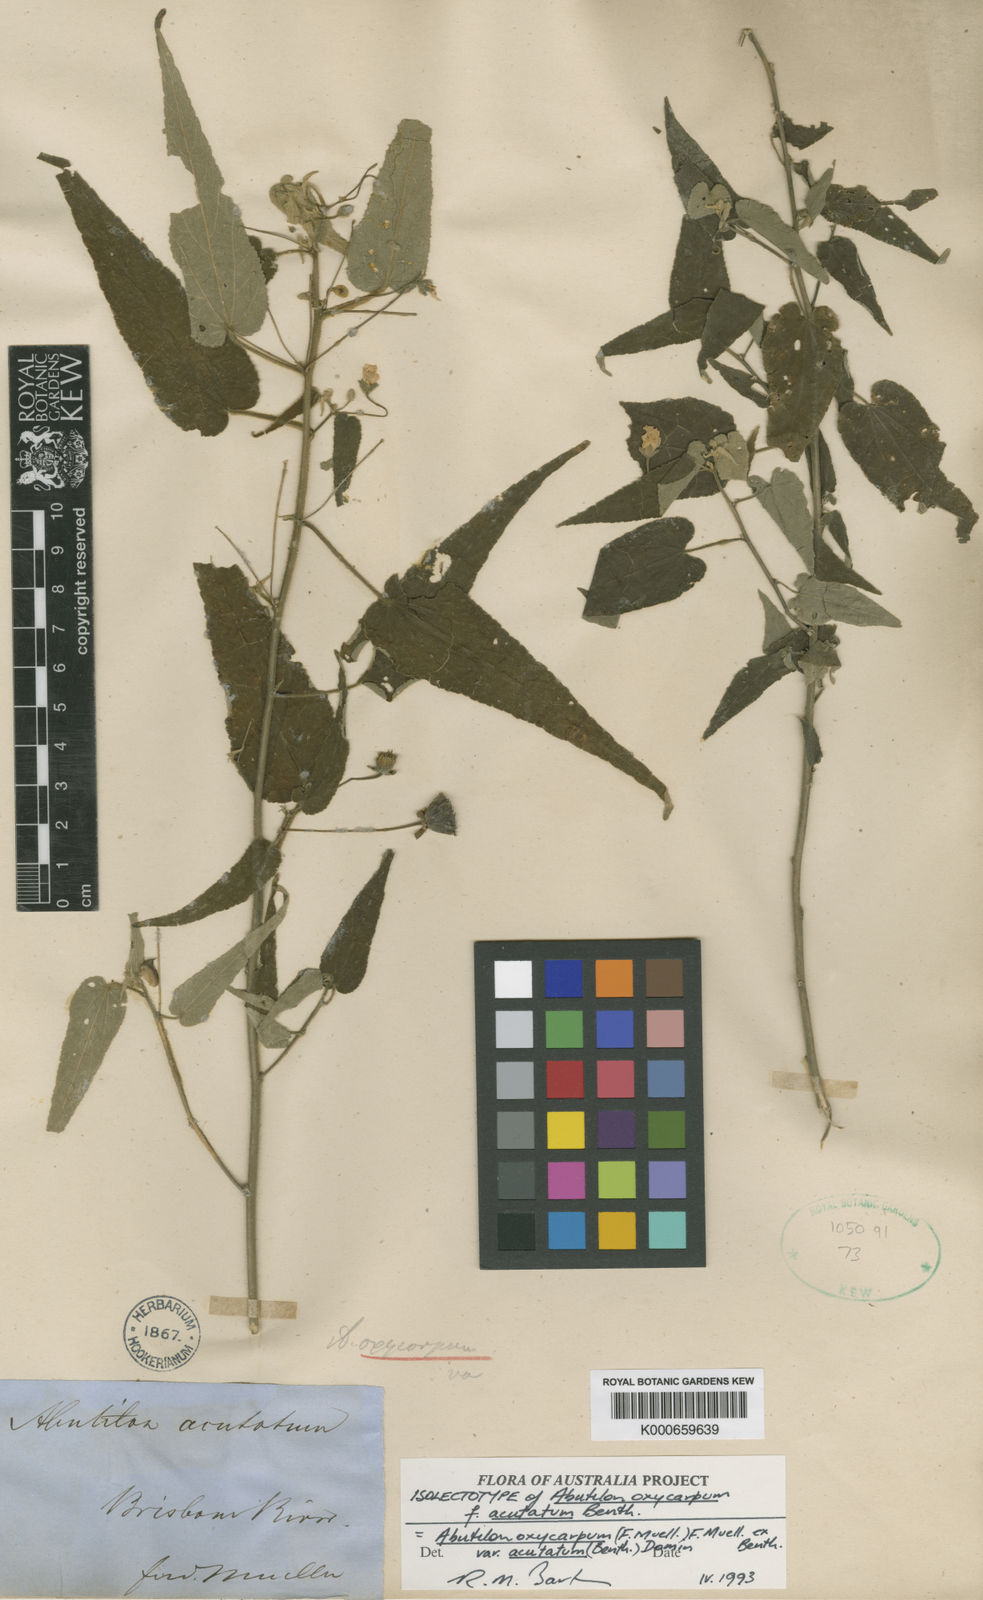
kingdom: Plantae
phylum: Tracheophyta
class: Magnoliopsida
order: Malvales
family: Malvaceae
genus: Abutilon
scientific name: Abutilon oxycarpum
